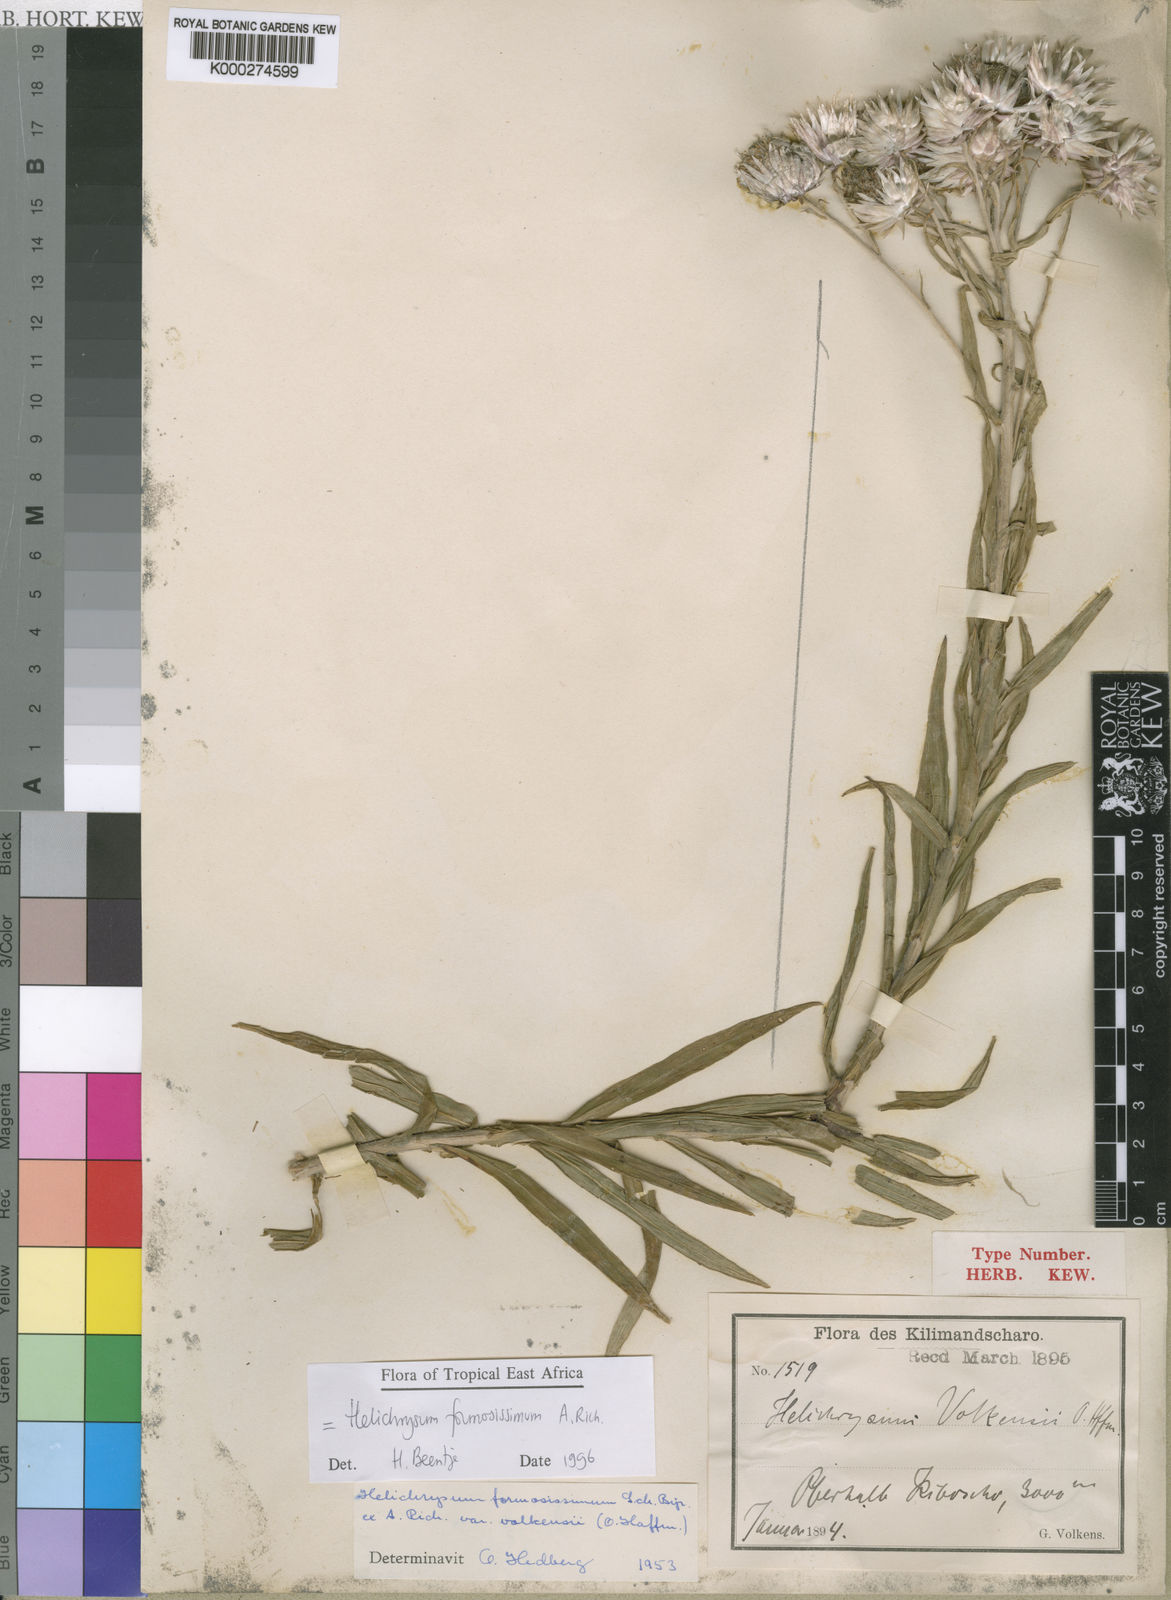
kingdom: Plantae
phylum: Tracheophyta
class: Magnoliopsida
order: Asterales
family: Asteraceae
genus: Helichrysum
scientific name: Helichrysum formosissimum
